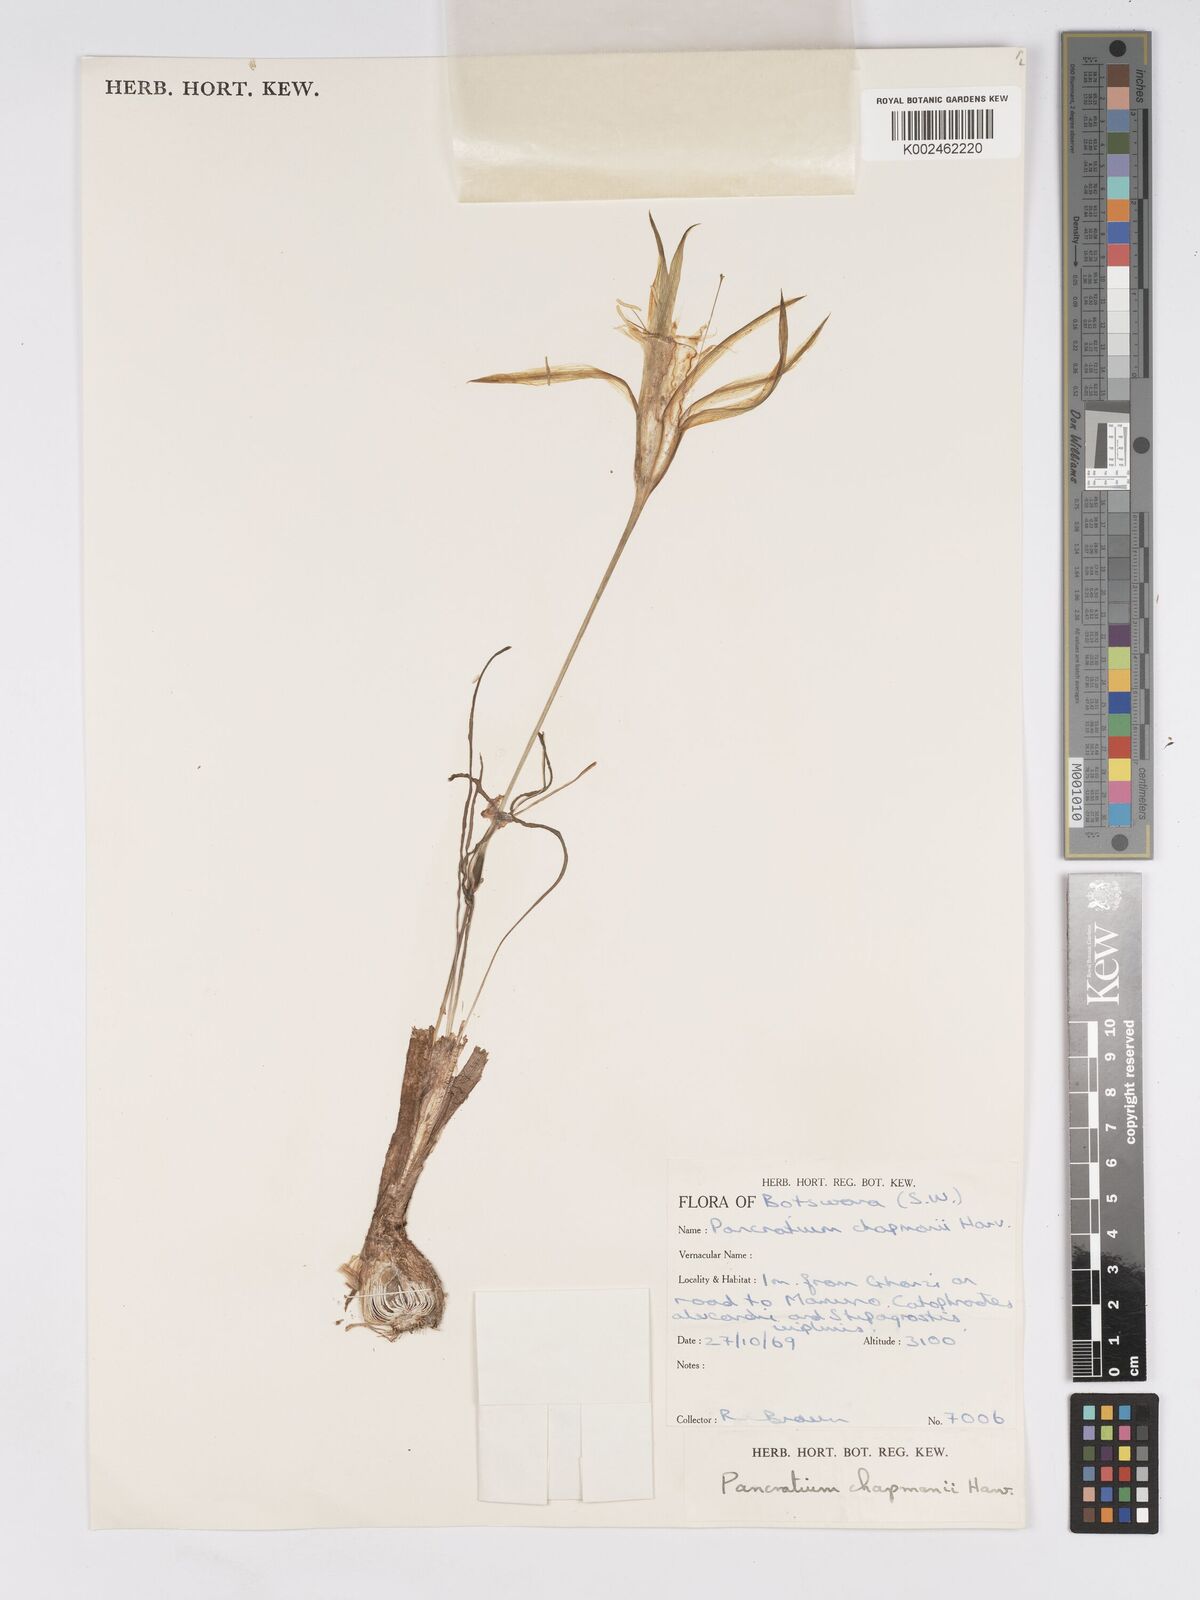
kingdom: Plantae
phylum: Tracheophyta
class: Liliopsida
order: Asparagales
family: Amaryllidaceae
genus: Pancratium
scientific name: Pancratium tenuifolium
